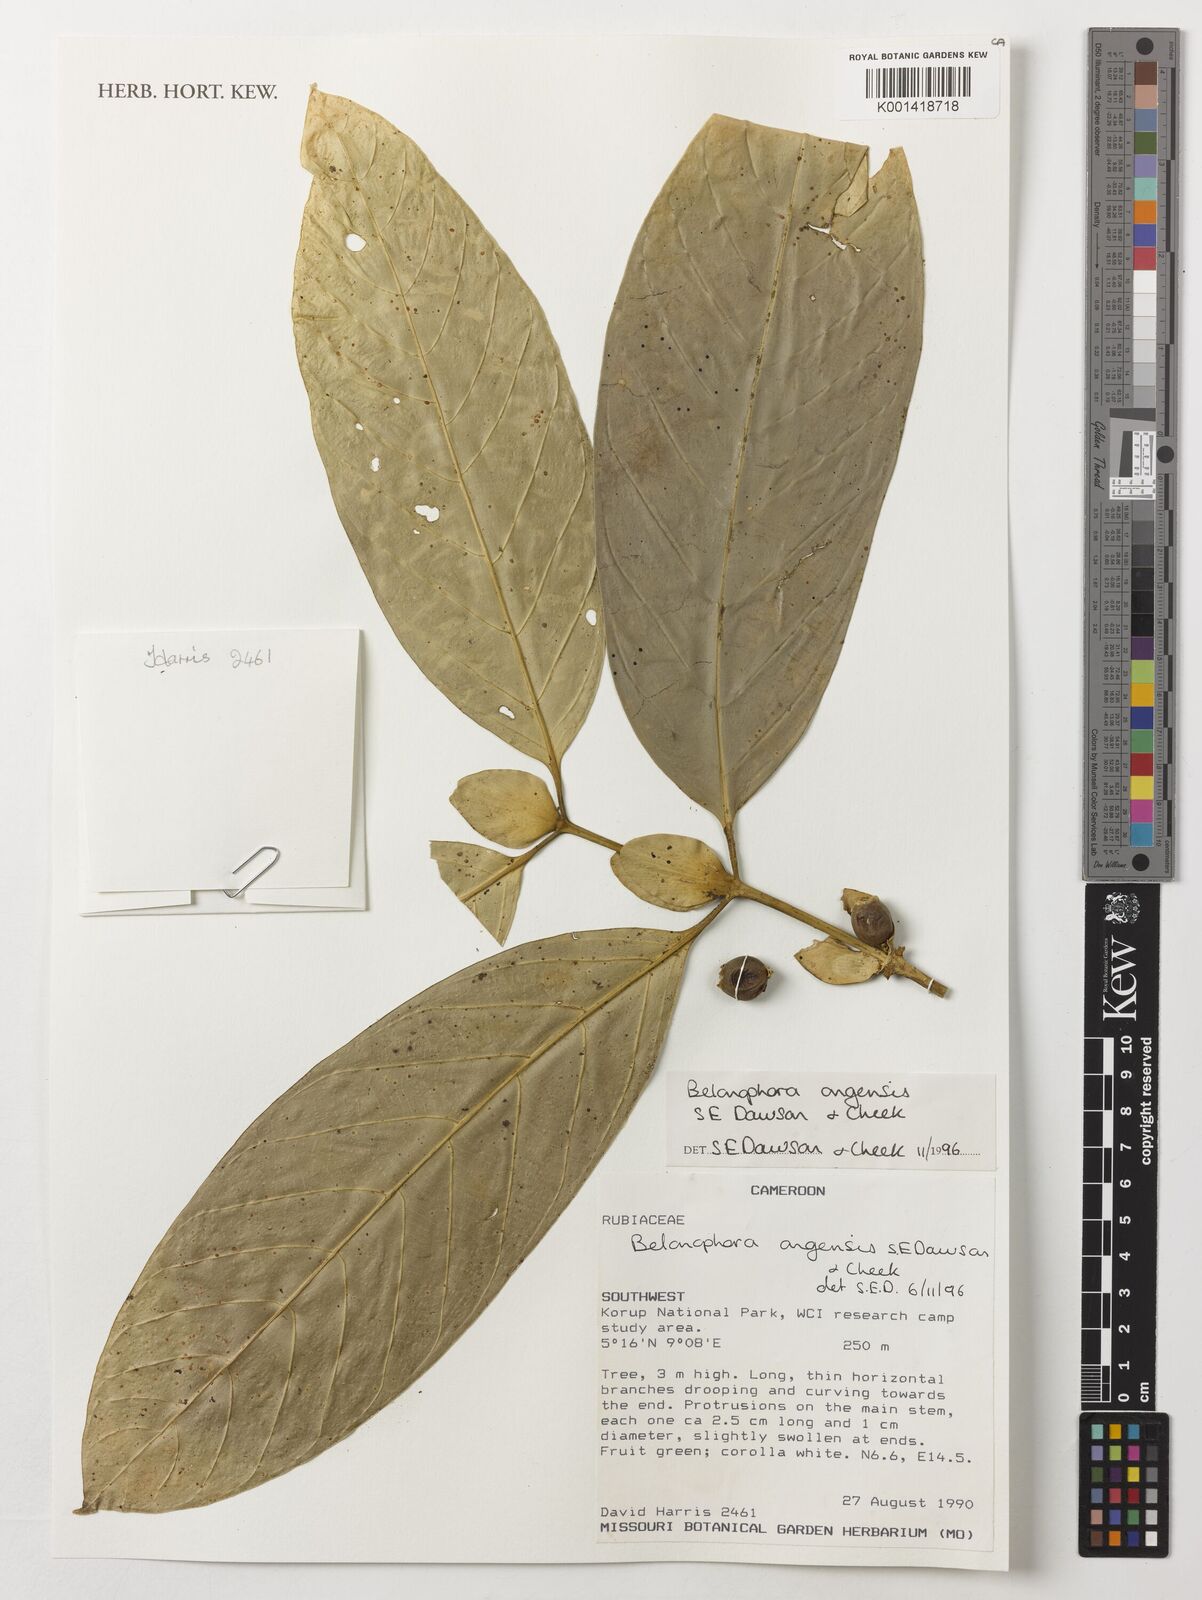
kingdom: Plantae
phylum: Tracheophyta
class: Magnoliopsida
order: Gentianales
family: Rubiaceae
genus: Belonophora
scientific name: Belonophora ongensis
